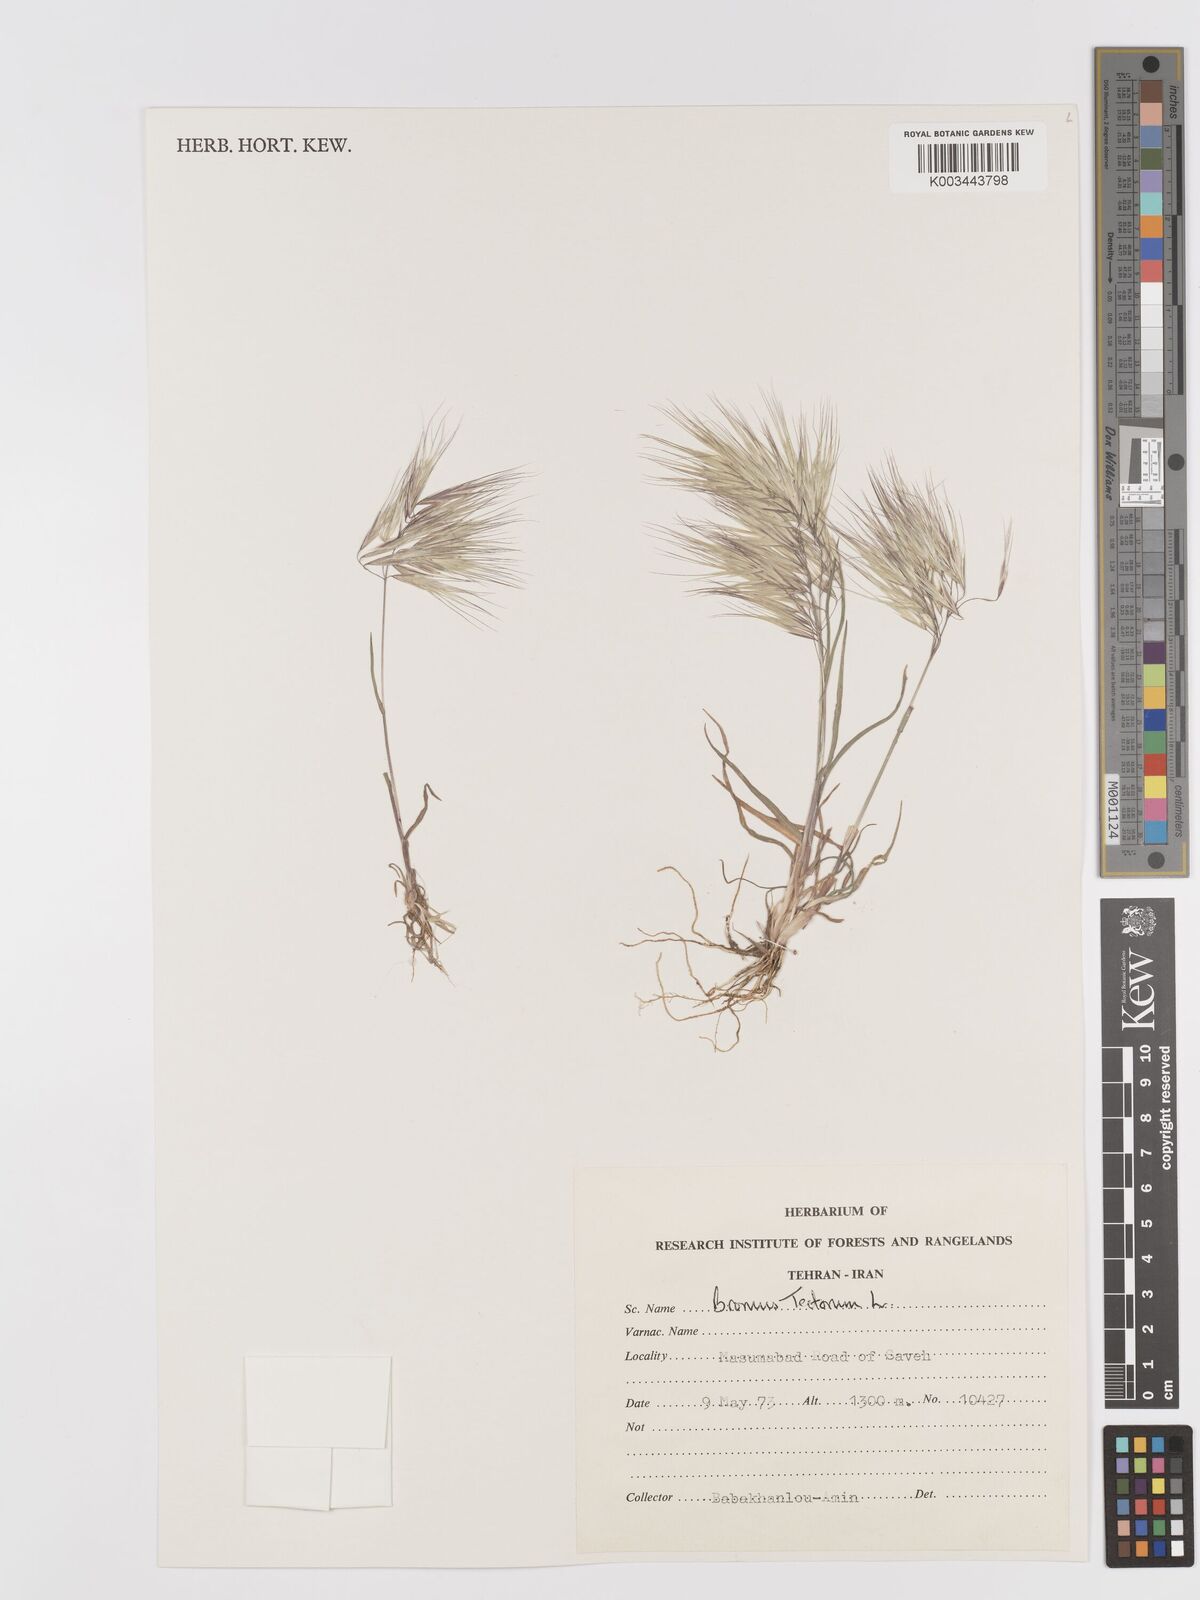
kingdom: Plantae
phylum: Tracheophyta
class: Liliopsida
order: Poales
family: Poaceae
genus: Bromus
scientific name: Bromus tectorum
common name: Cheatgrass
